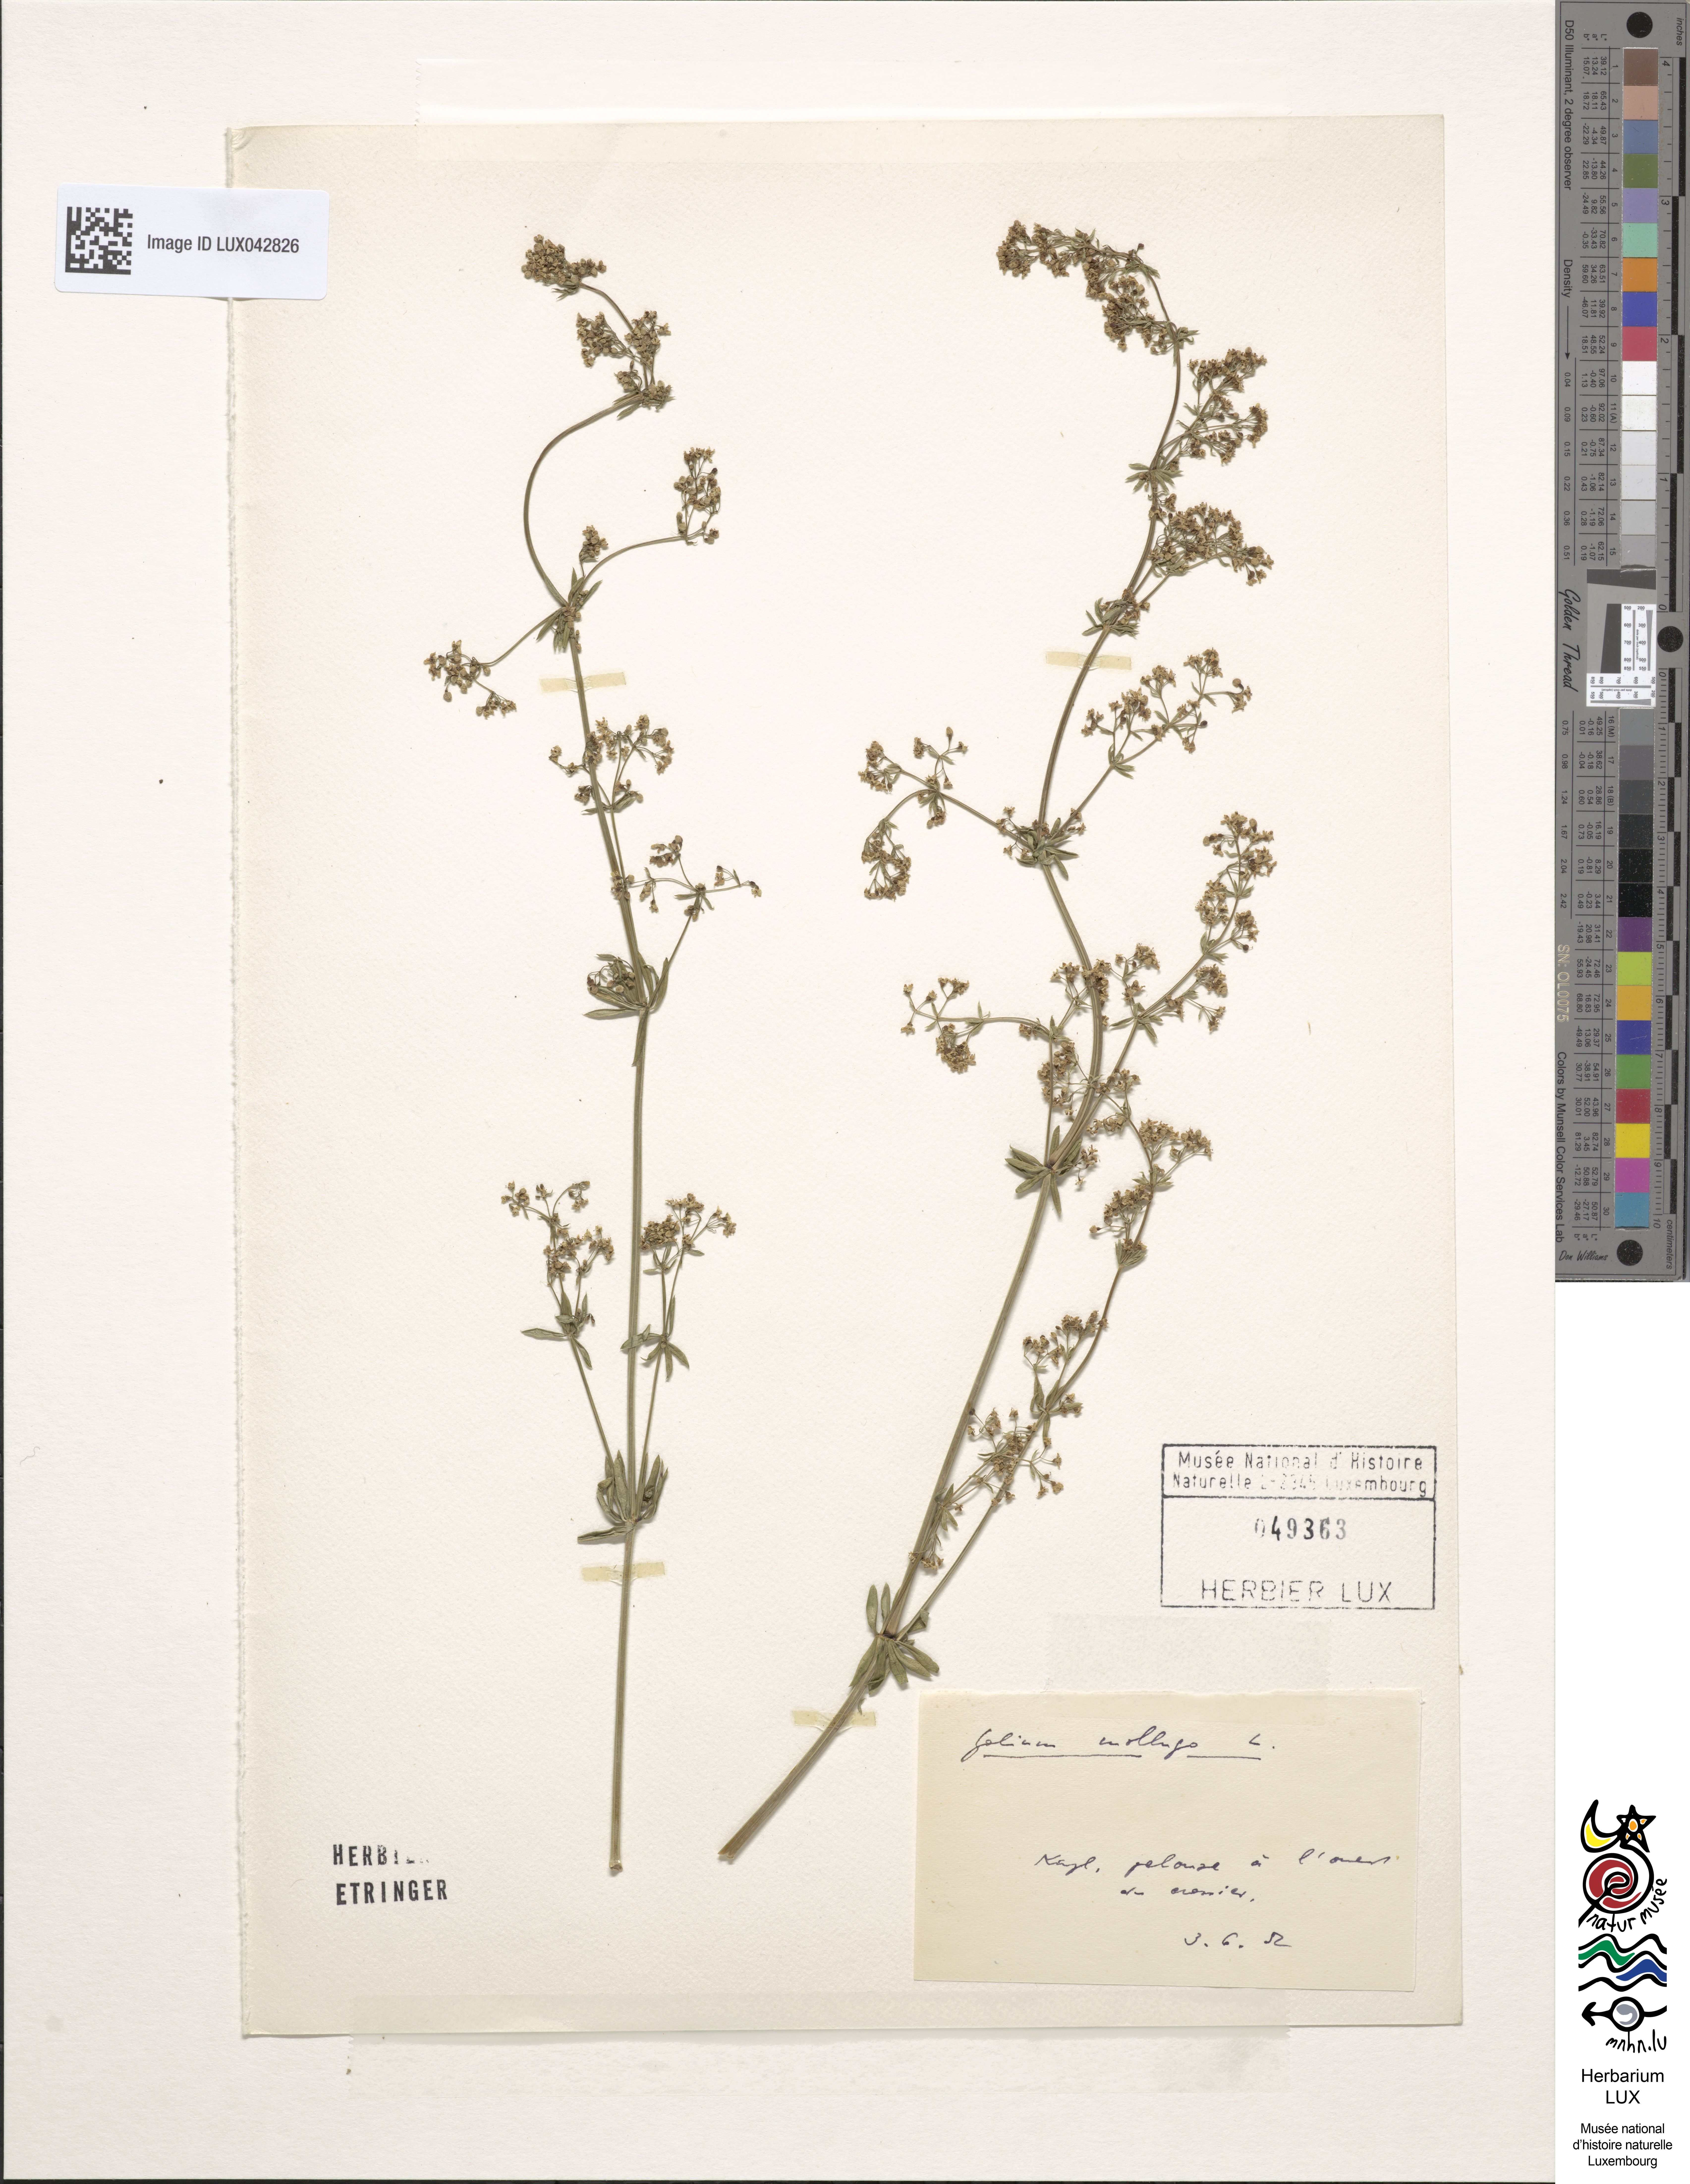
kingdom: Plantae
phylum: Tracheophyta
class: Magnoliopsida
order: Gentianales
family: Rubiaceae
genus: Galium
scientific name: Galium mollugo
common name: Hedge bedstraw
